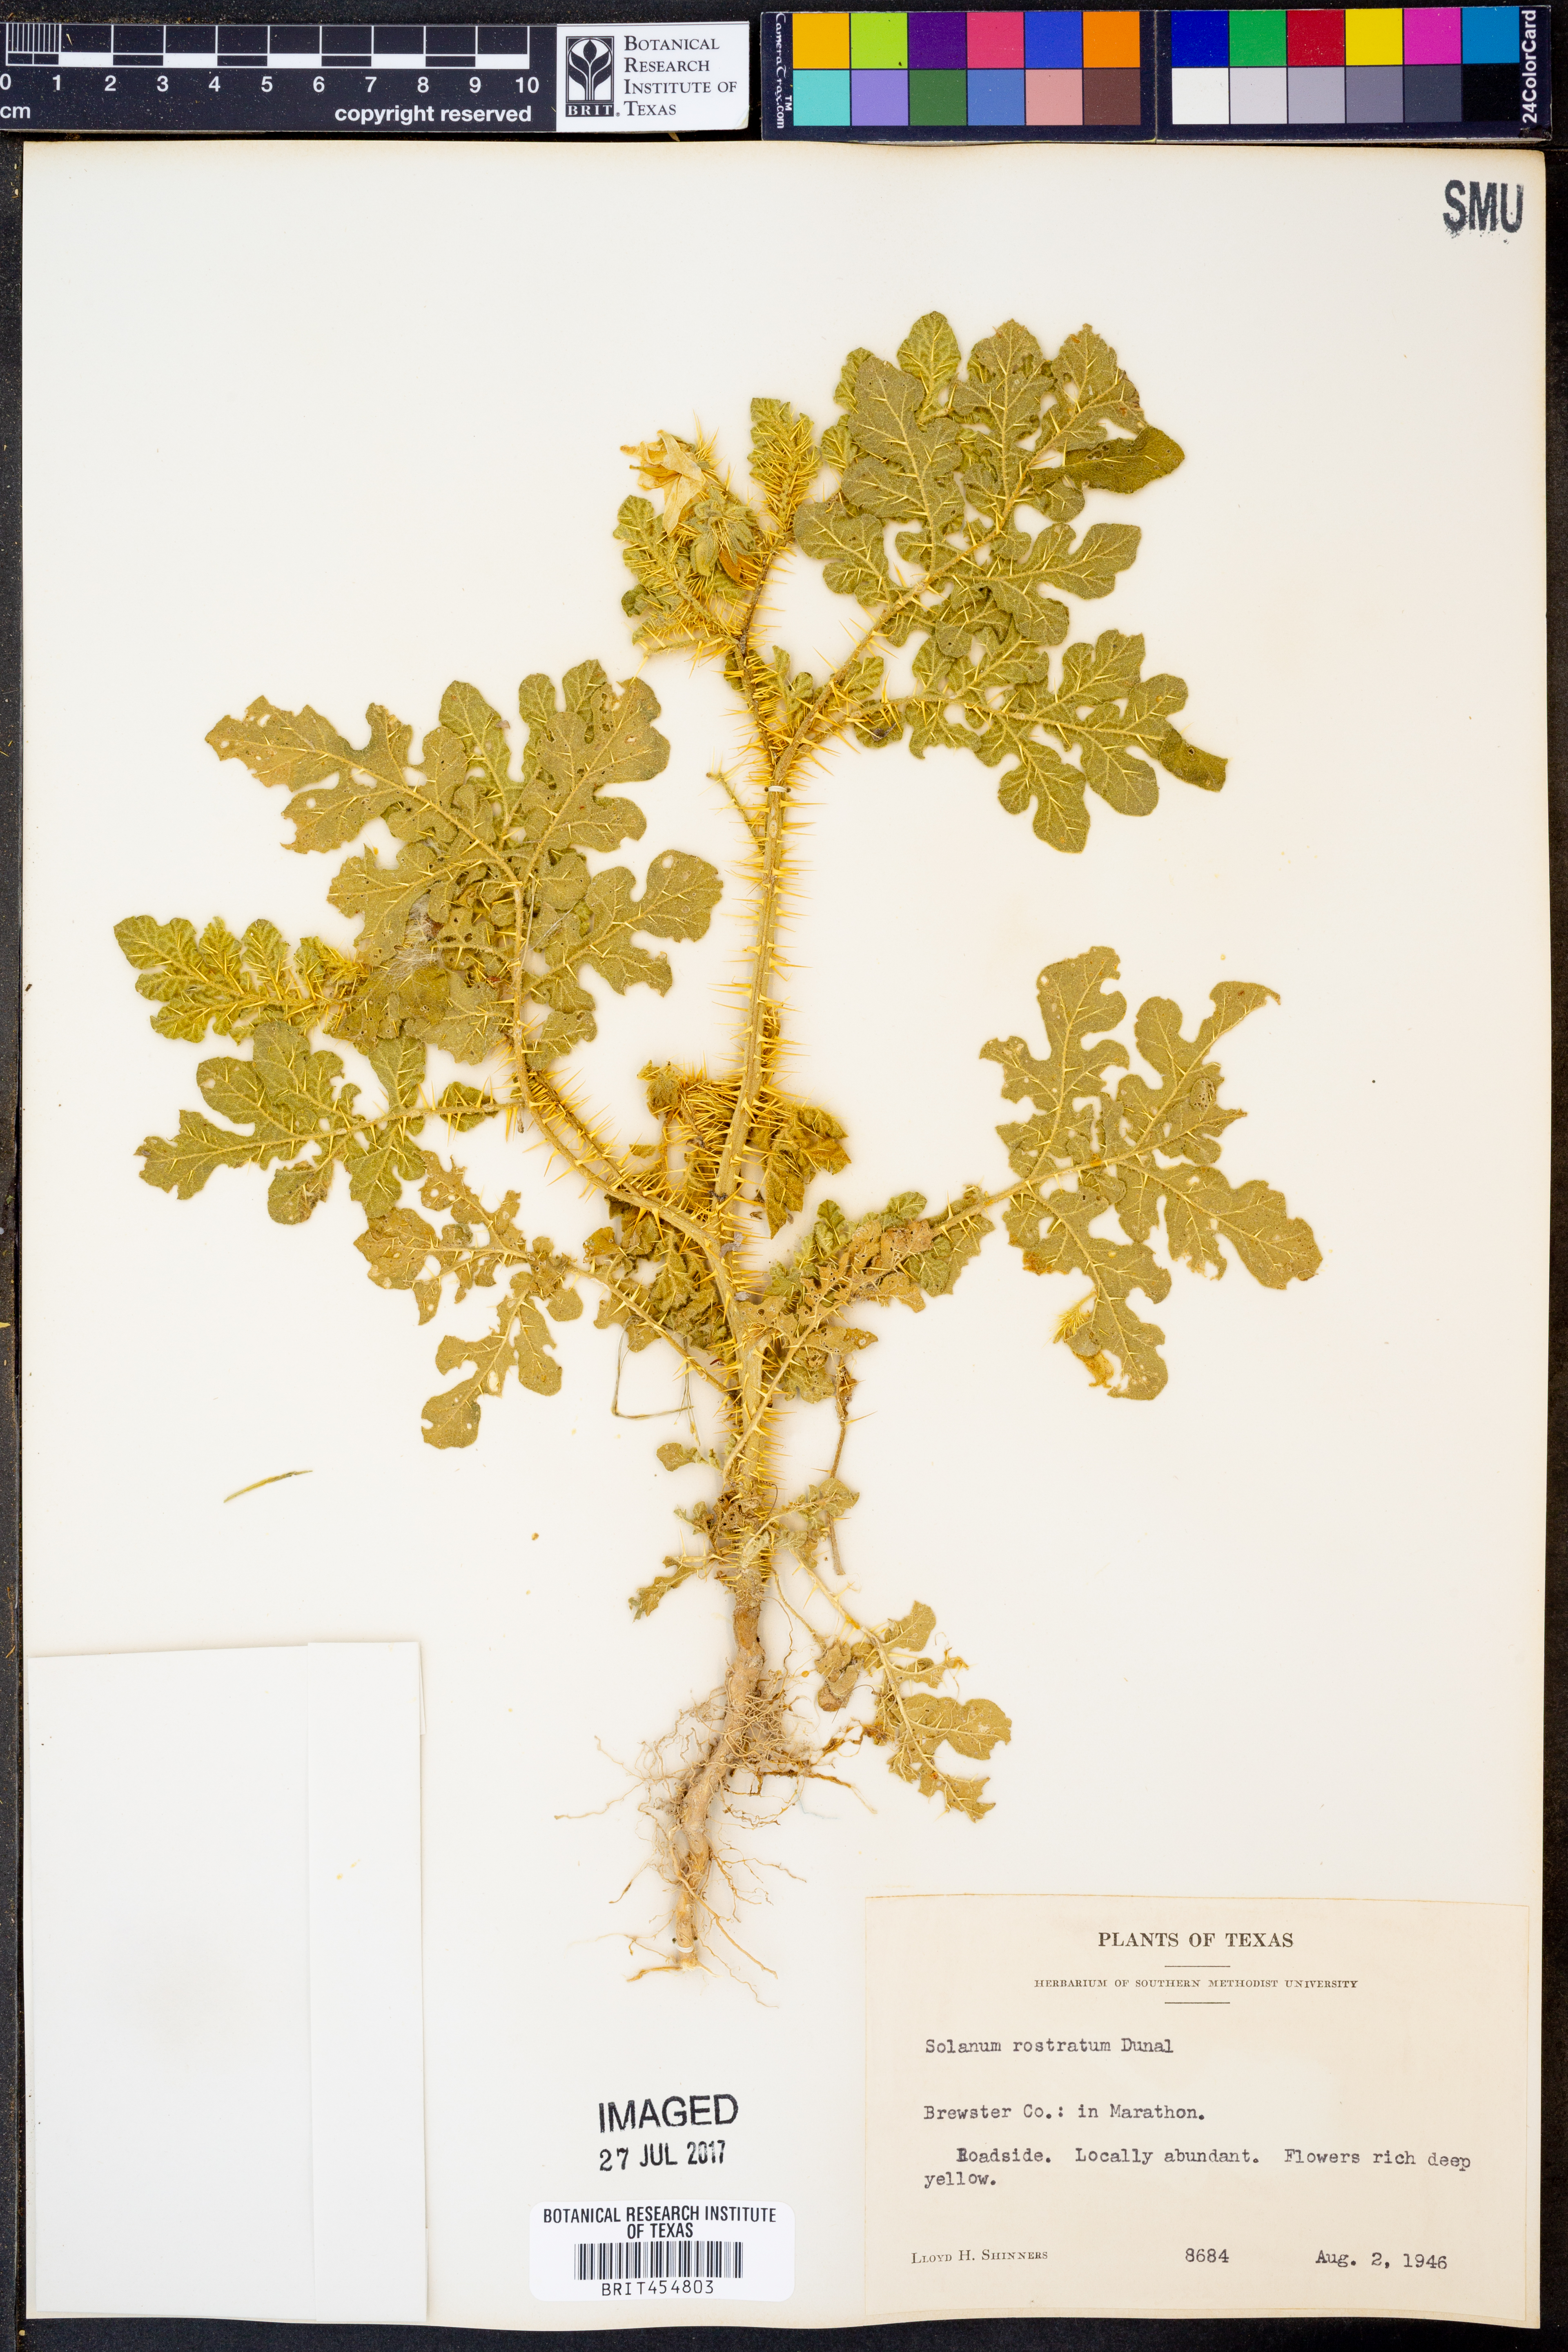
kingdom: Plantae
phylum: Tracheophyta
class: Magnoliopsida
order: Solanales
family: Solanaceae
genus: Solanum
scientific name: Solanum angustifolium
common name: Buffalobur nightshade
